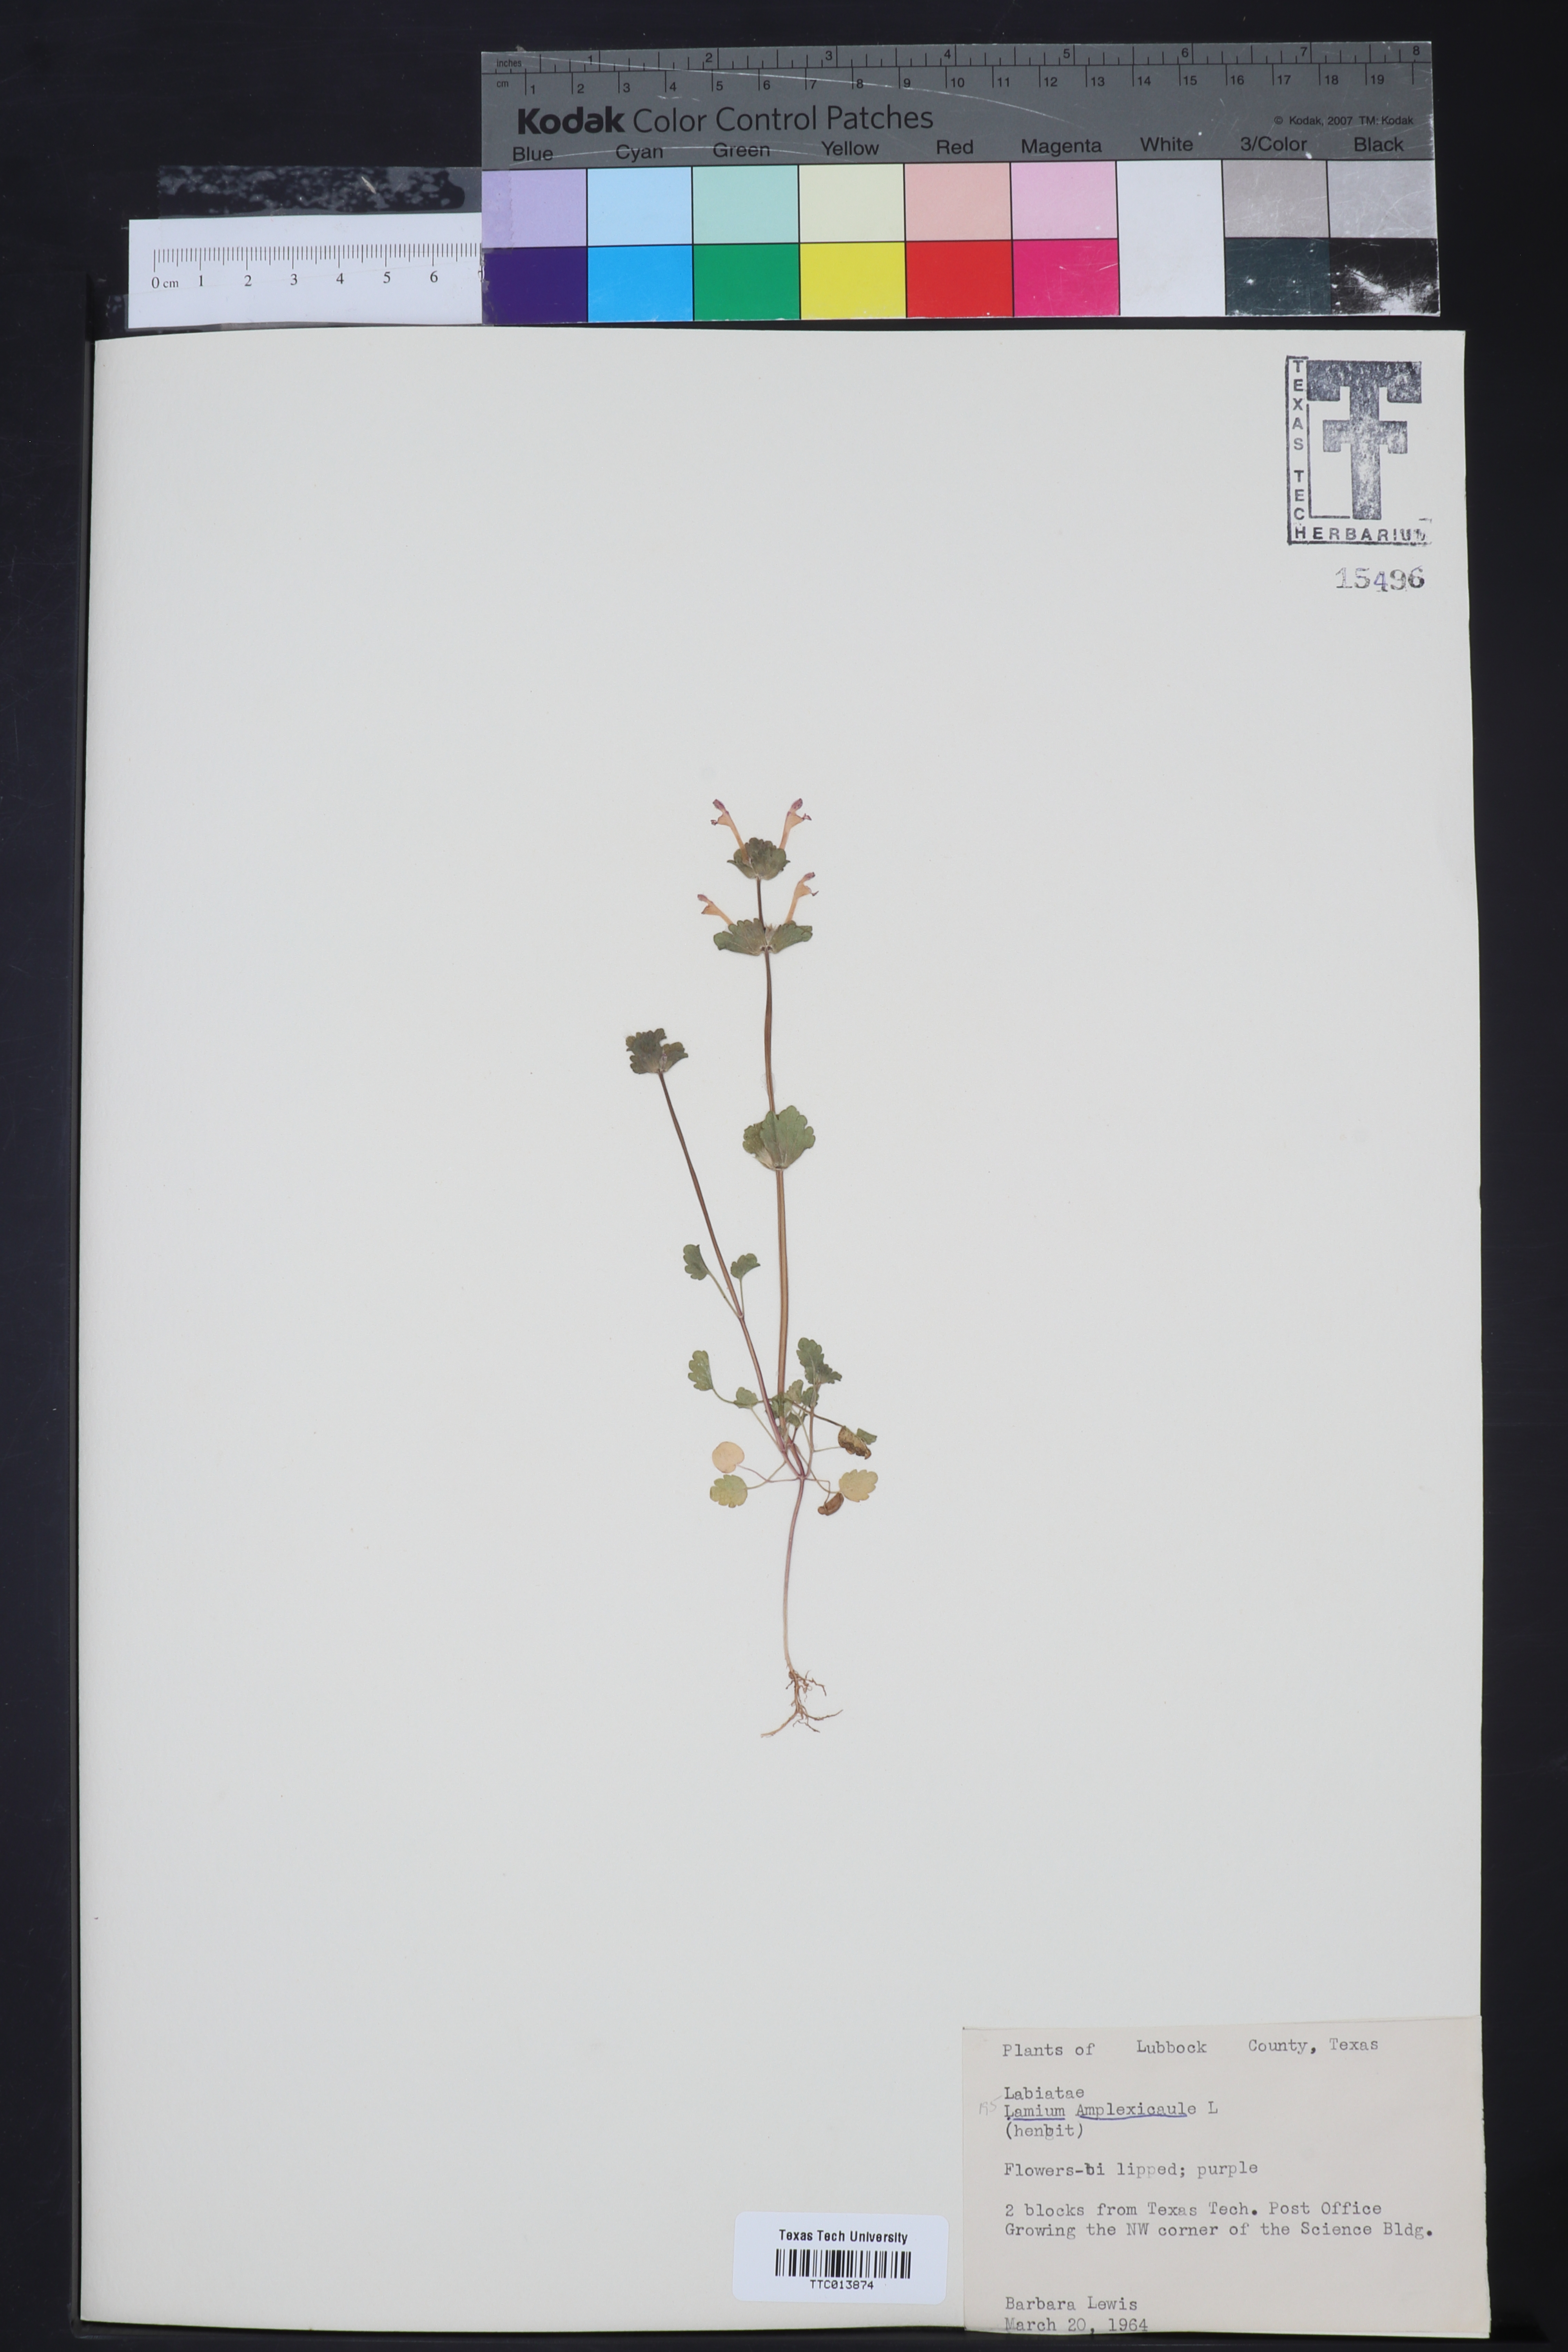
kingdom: Plantae
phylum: Tracheophyta
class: Magnoliopsida
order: Lamiales
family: Lamiaceae
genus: Lamium
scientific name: Lamium amplexicaule
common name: Henbit dead-nettle
